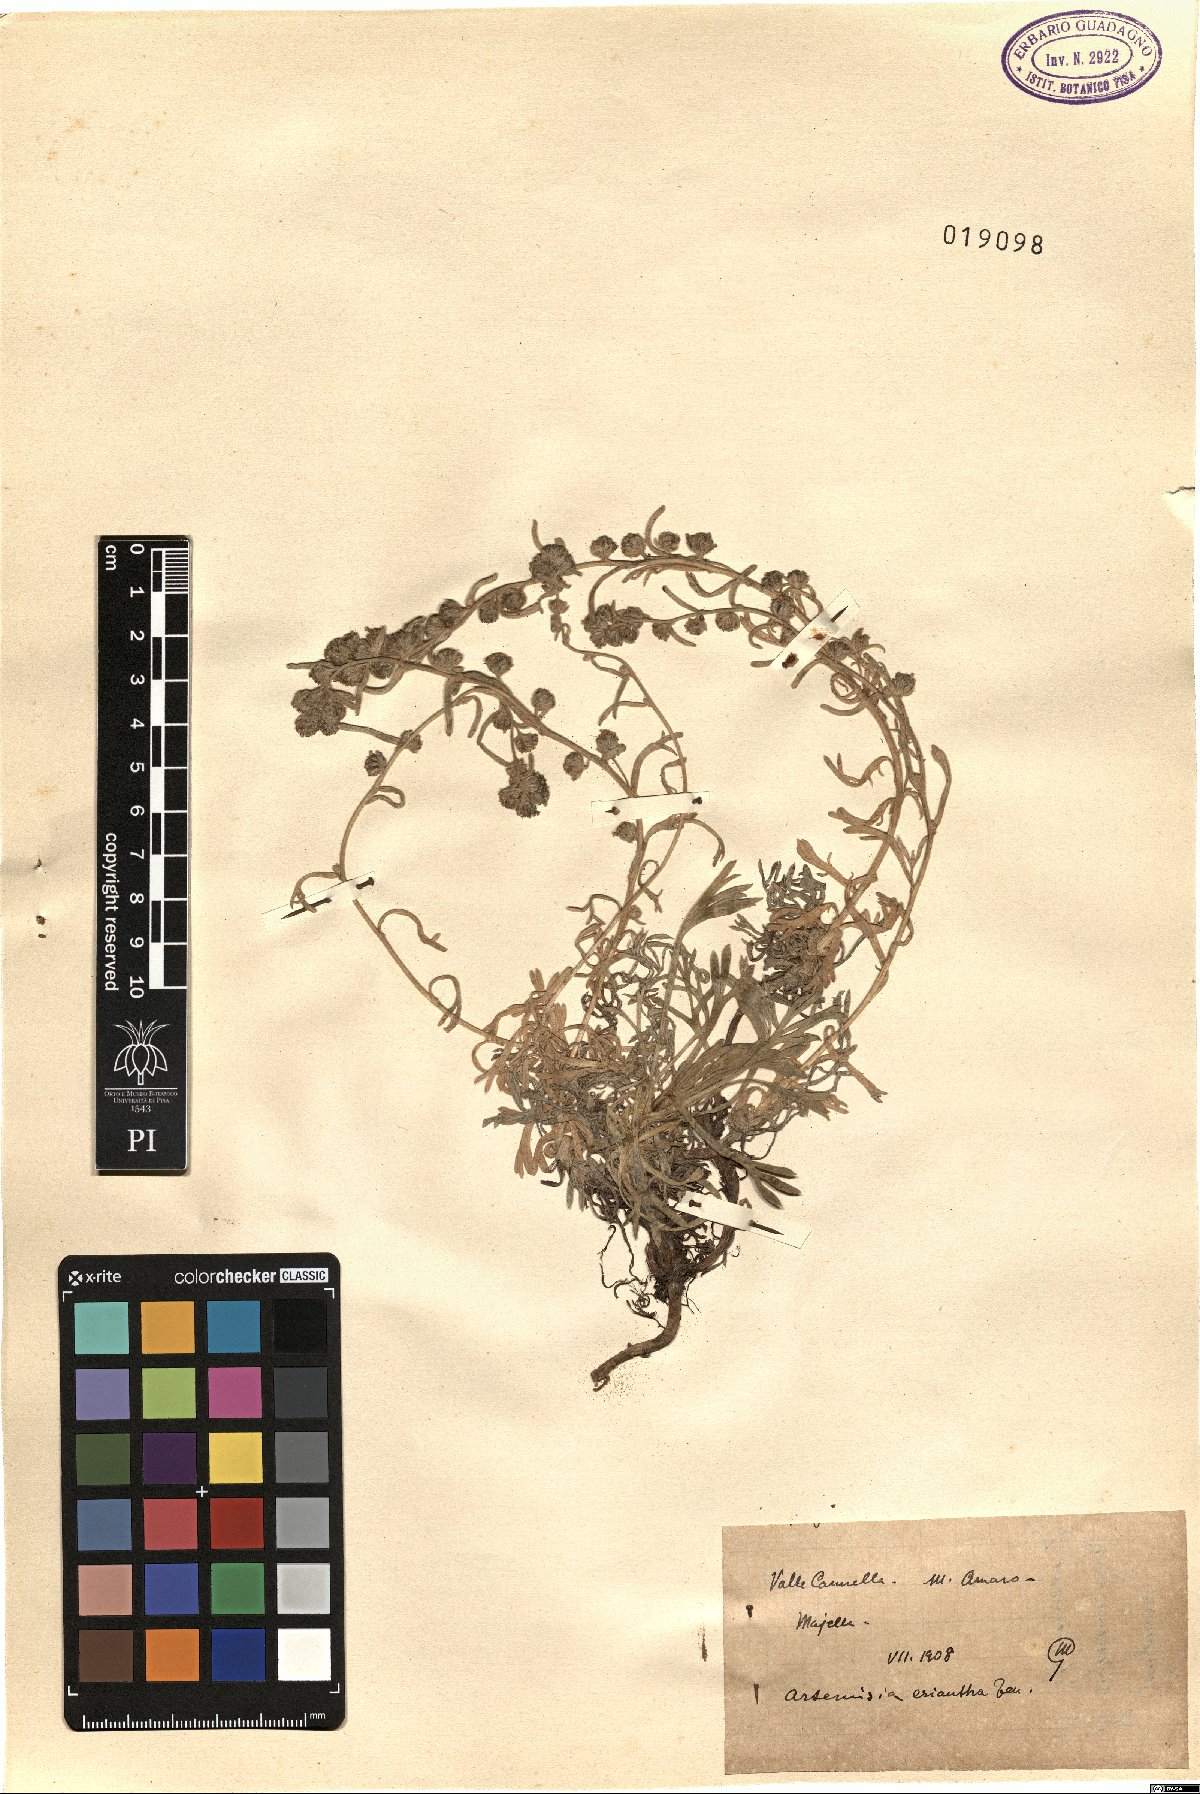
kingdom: Plantae
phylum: Tracheophyta
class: Magnoliopsida
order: Asterales
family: Asteraceae
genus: Artemisia
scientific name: Artemisia eriantha
